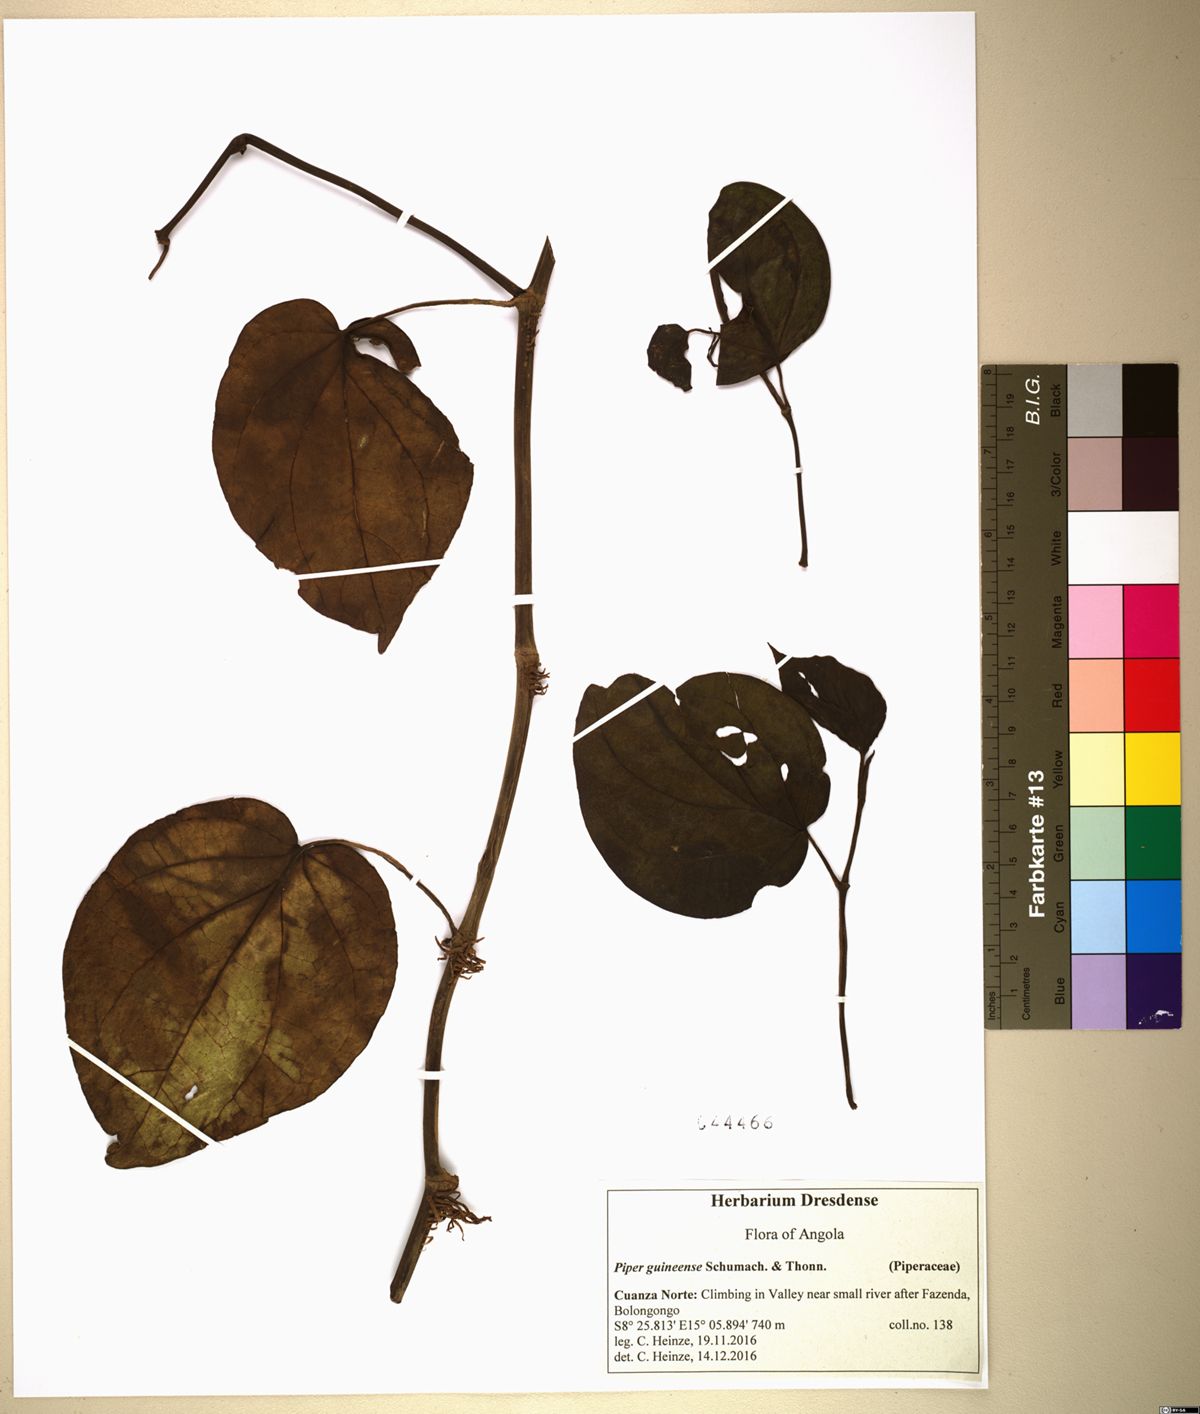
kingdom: Plantae
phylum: Tracheophyta
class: Magnoliopsida
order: Piperales
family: Piperaceae
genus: Piper
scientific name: Piper guineense
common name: Benin pepper
